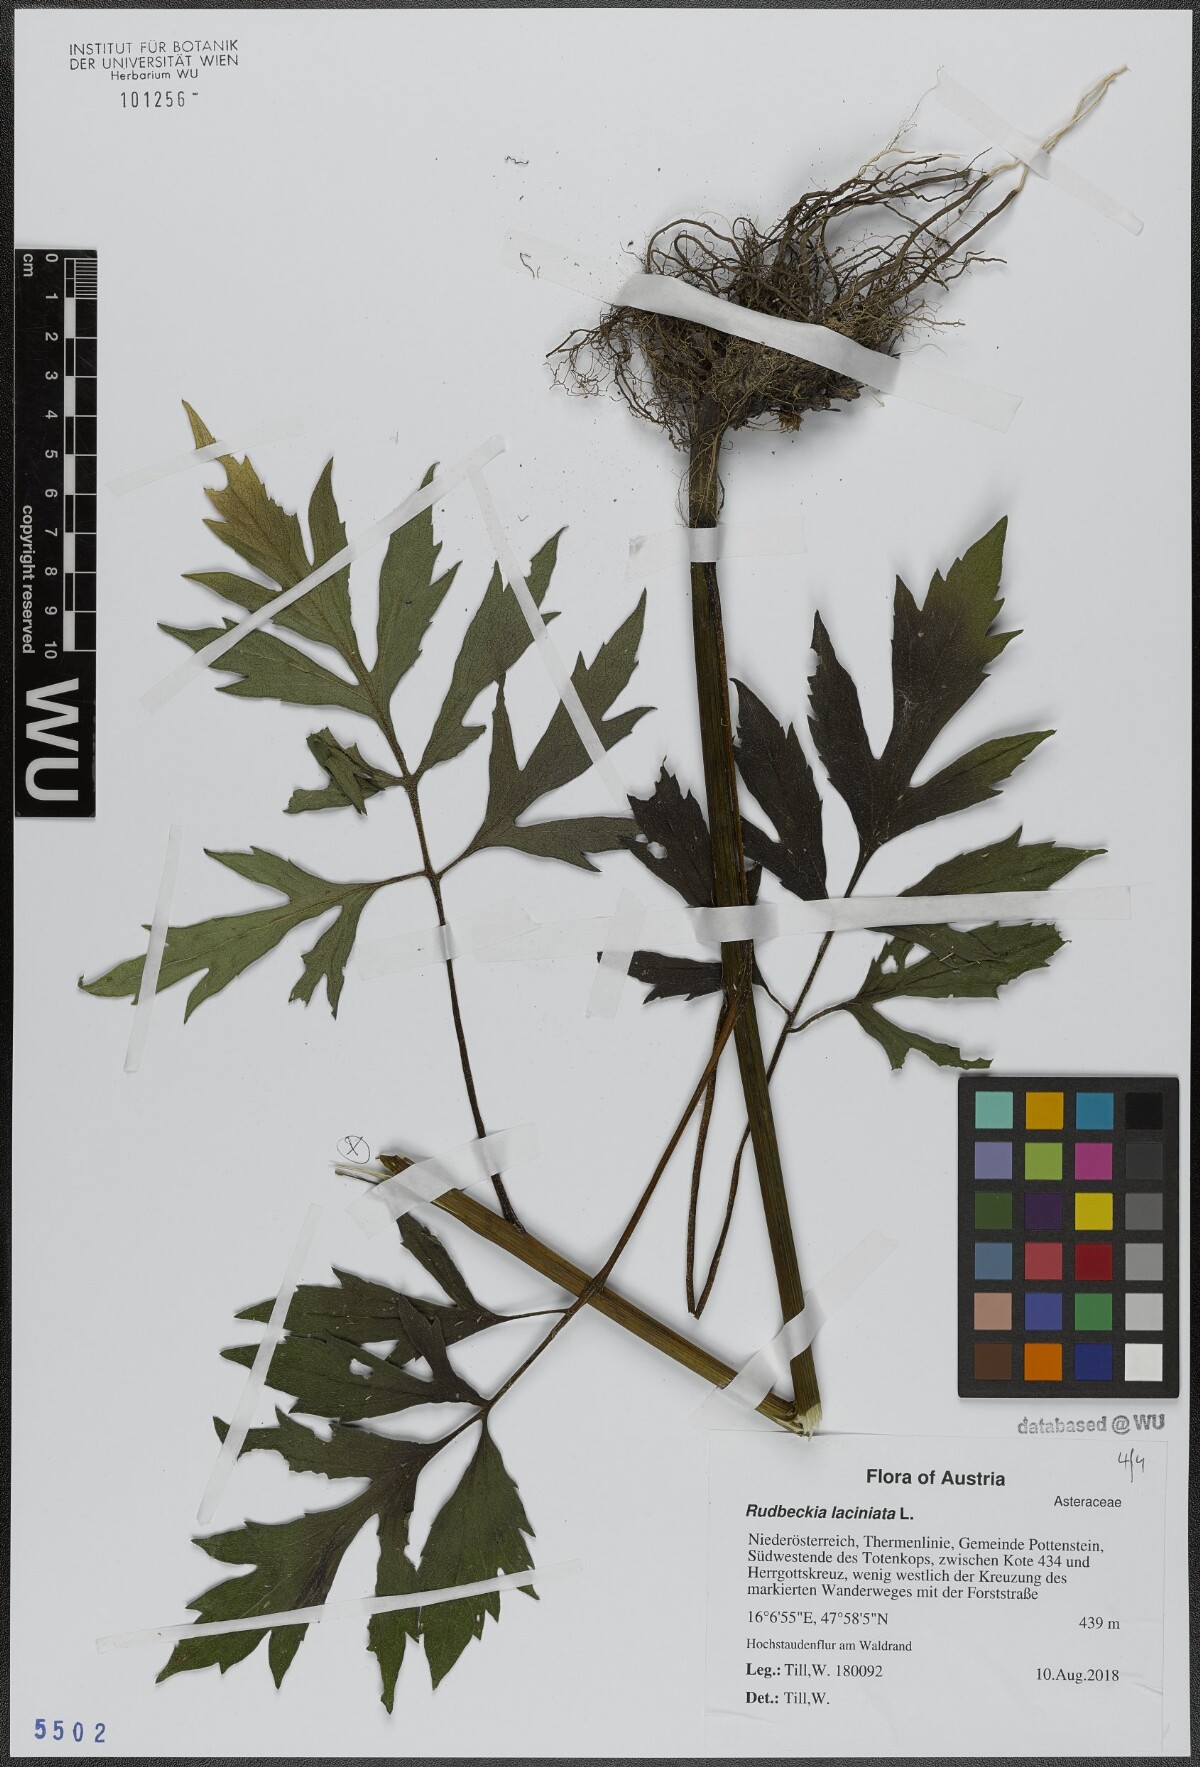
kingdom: Plantae
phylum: Tracheophyta
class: Magnoliopsida
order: Asterales
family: Asteraceae
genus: Rudbeckia
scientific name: Rudbeckia laciniata
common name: Coneflower
